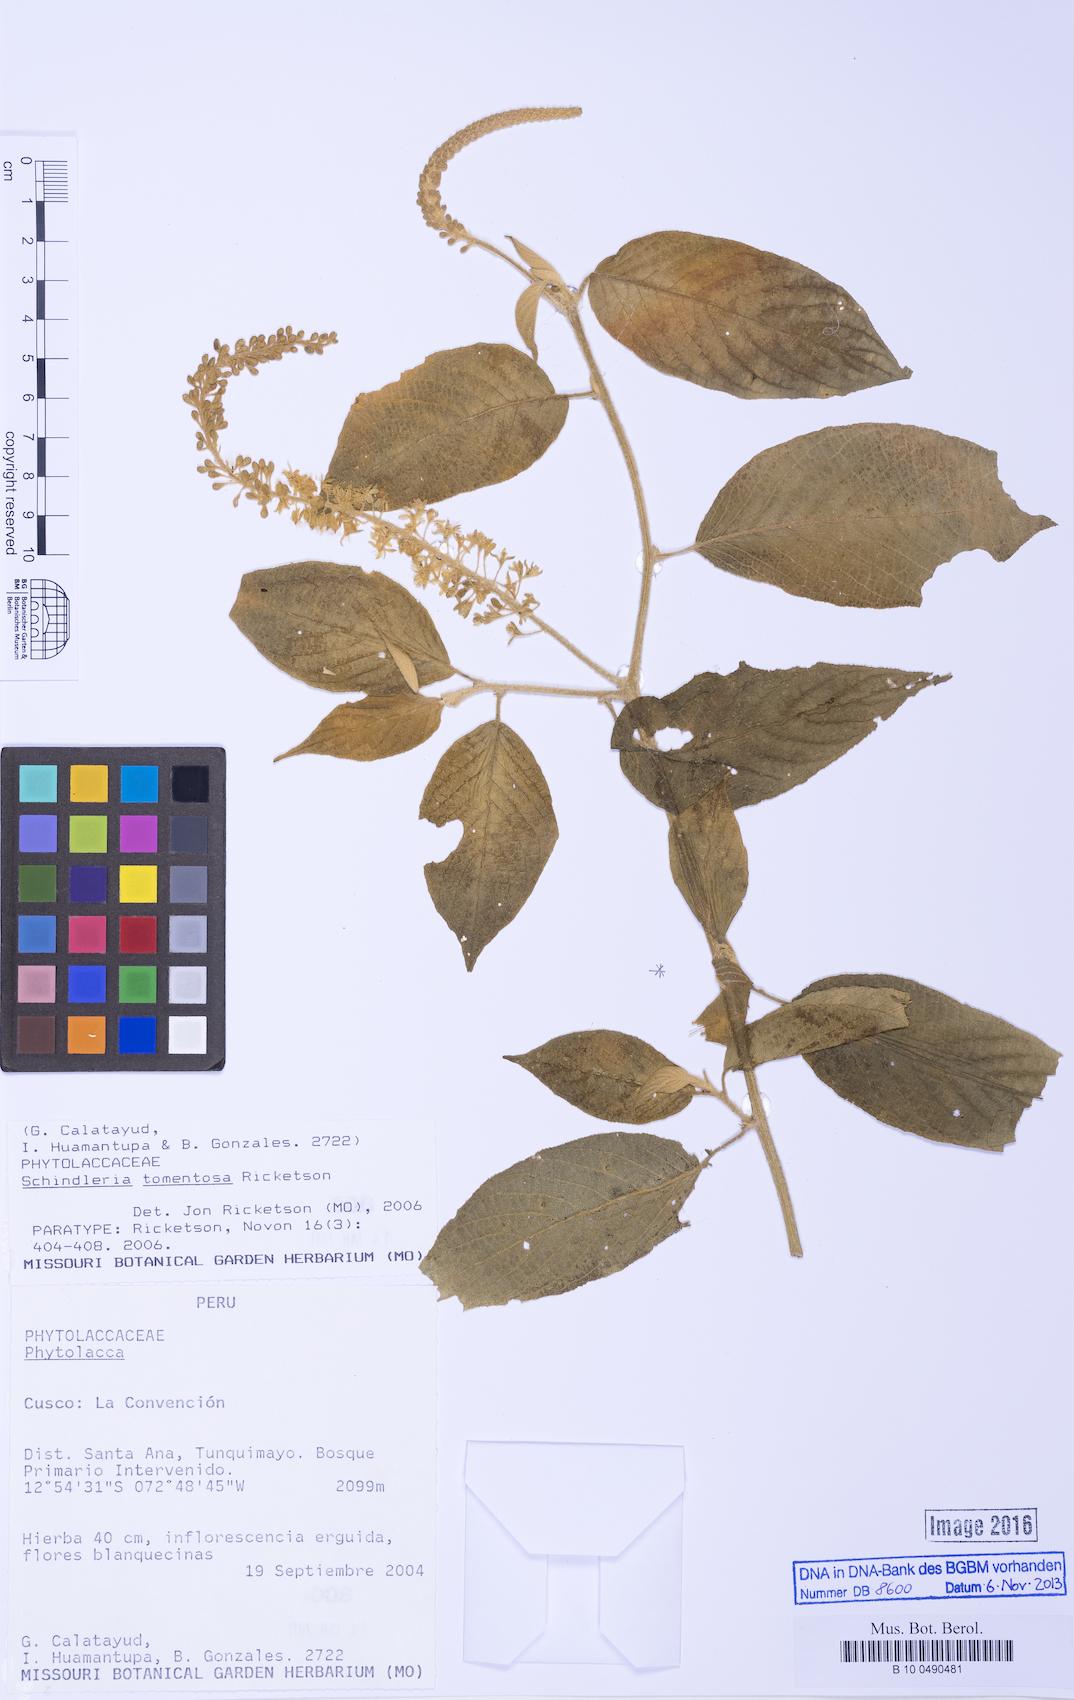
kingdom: Plantae
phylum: Tracheophyta
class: Magnoliopsida
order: Caryophyllales
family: Phytolaccaceae
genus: Schindleria
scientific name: Schindleria
